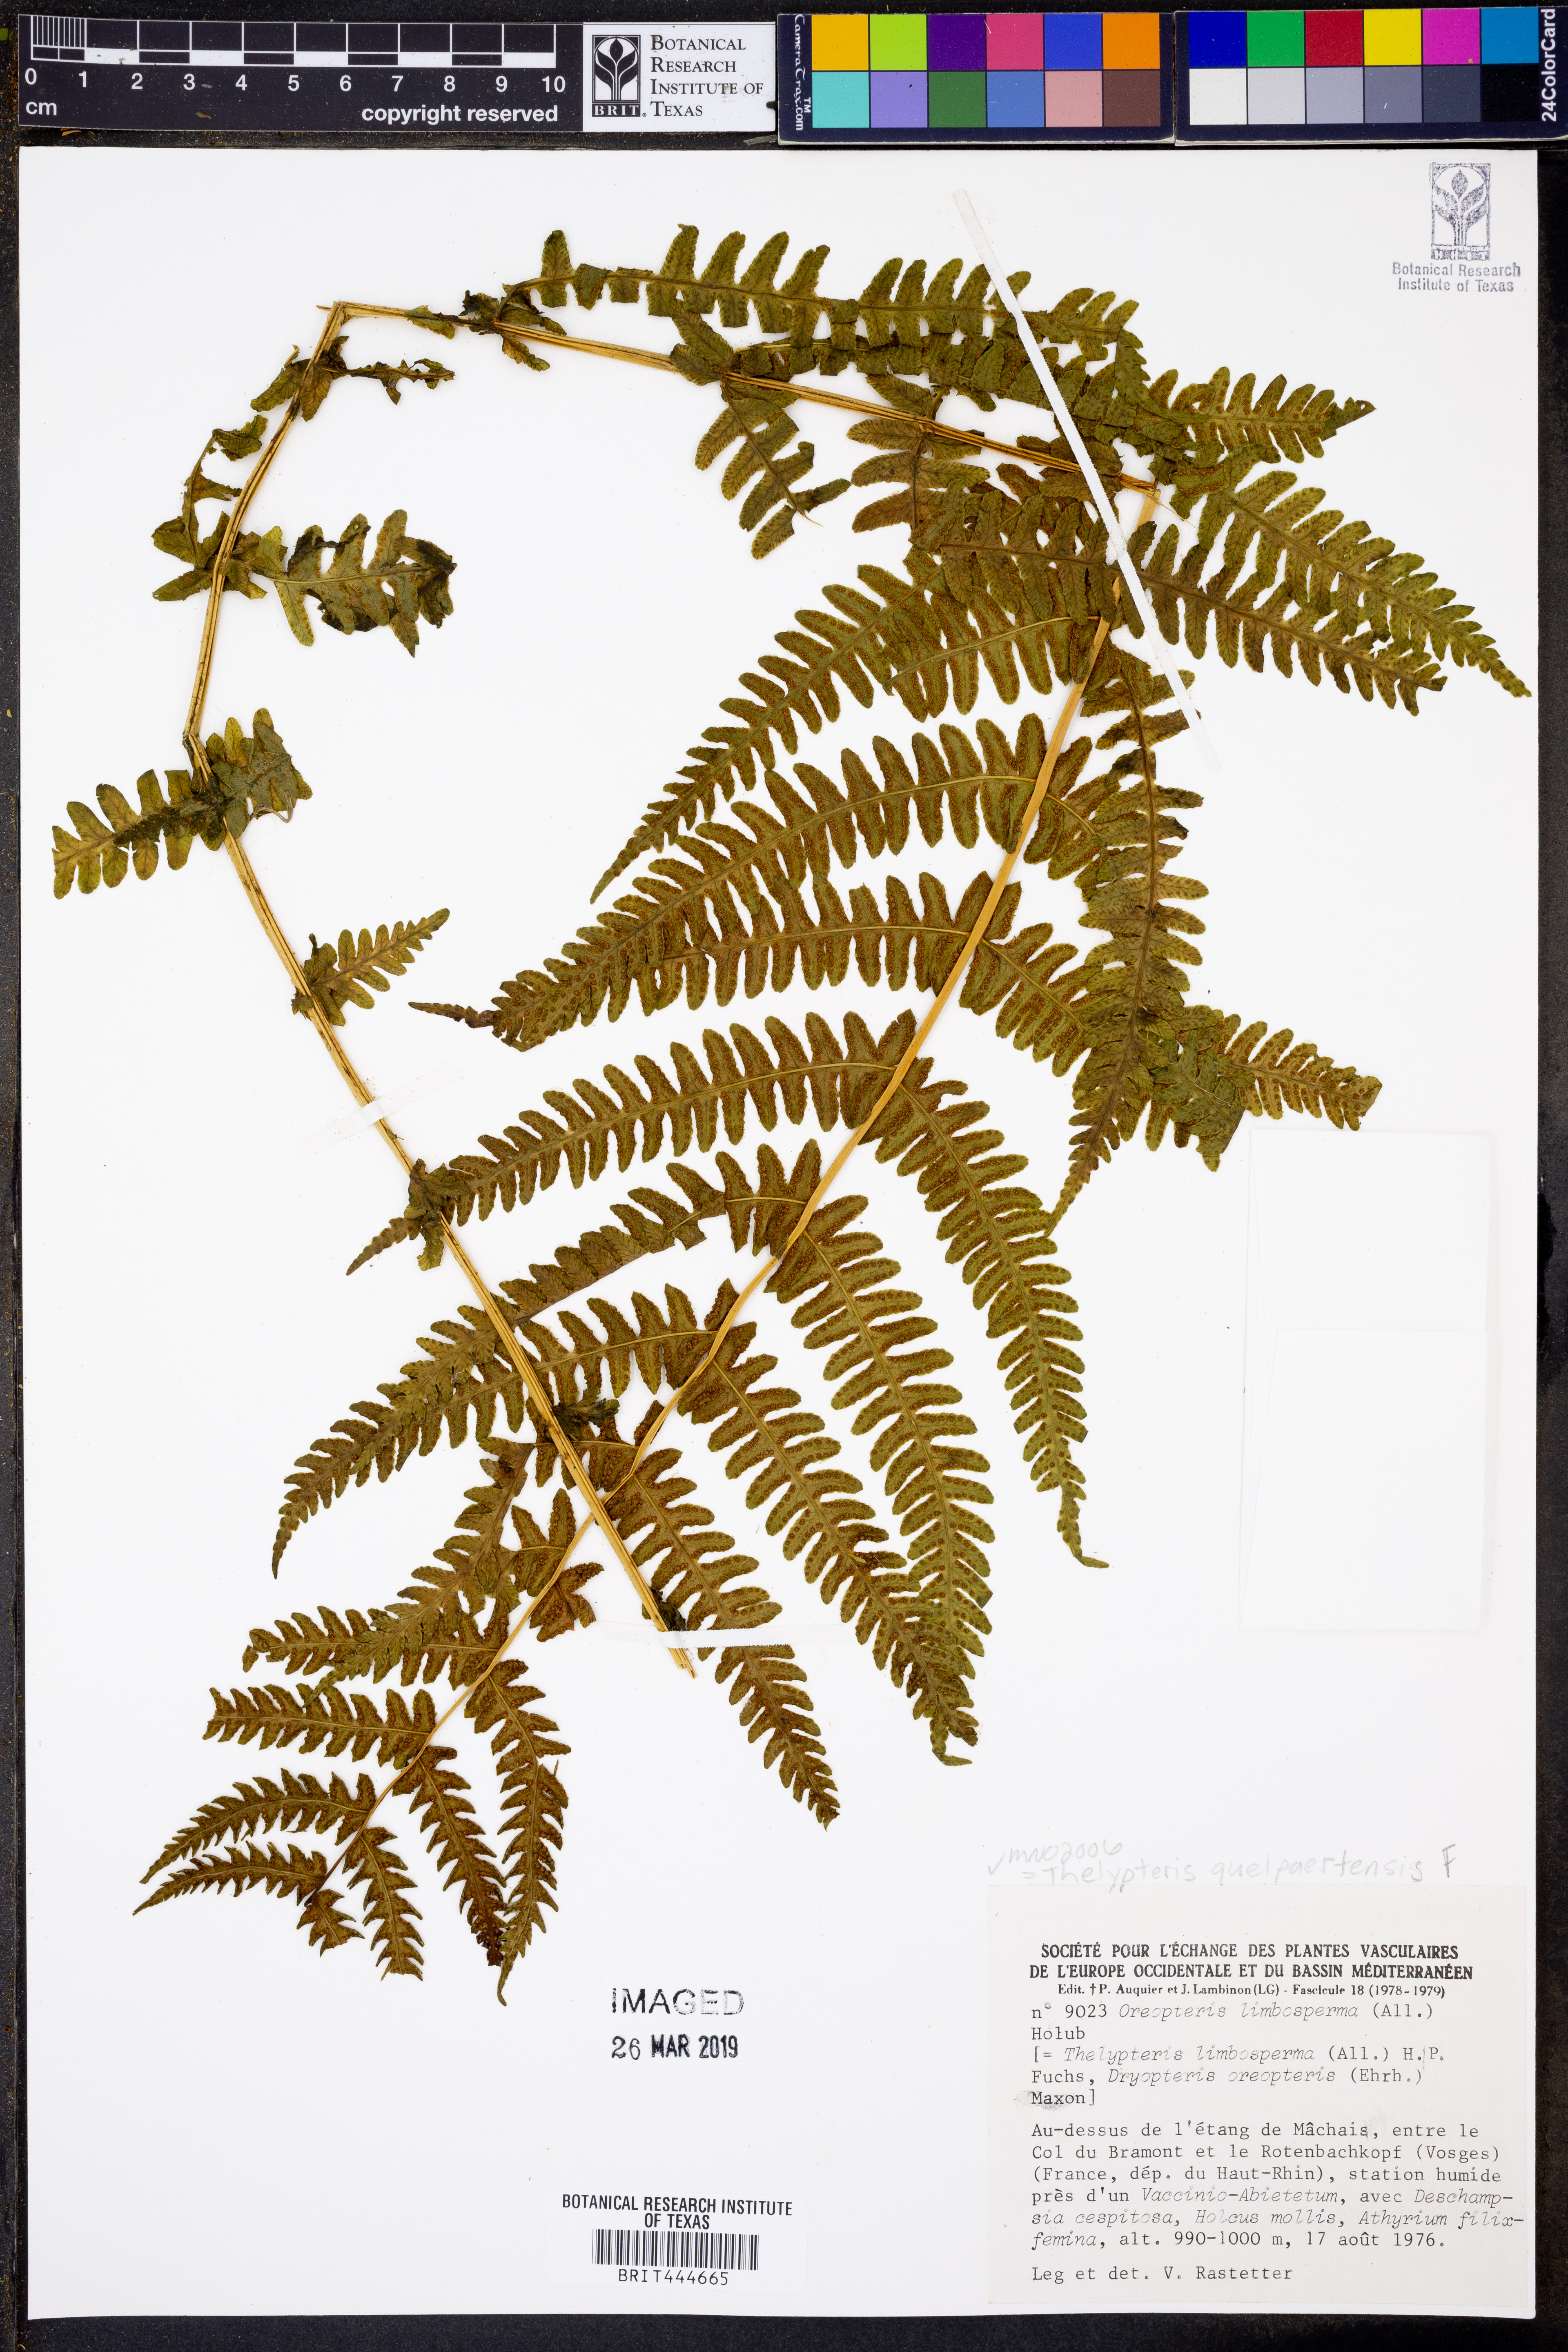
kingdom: Plantae
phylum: Tracheophyta
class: Polypodiopsida
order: Polypodiales
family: Thelypteridaceae
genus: Oreopteris
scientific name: Oreopteris quelpartensis
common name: Mountain fern
